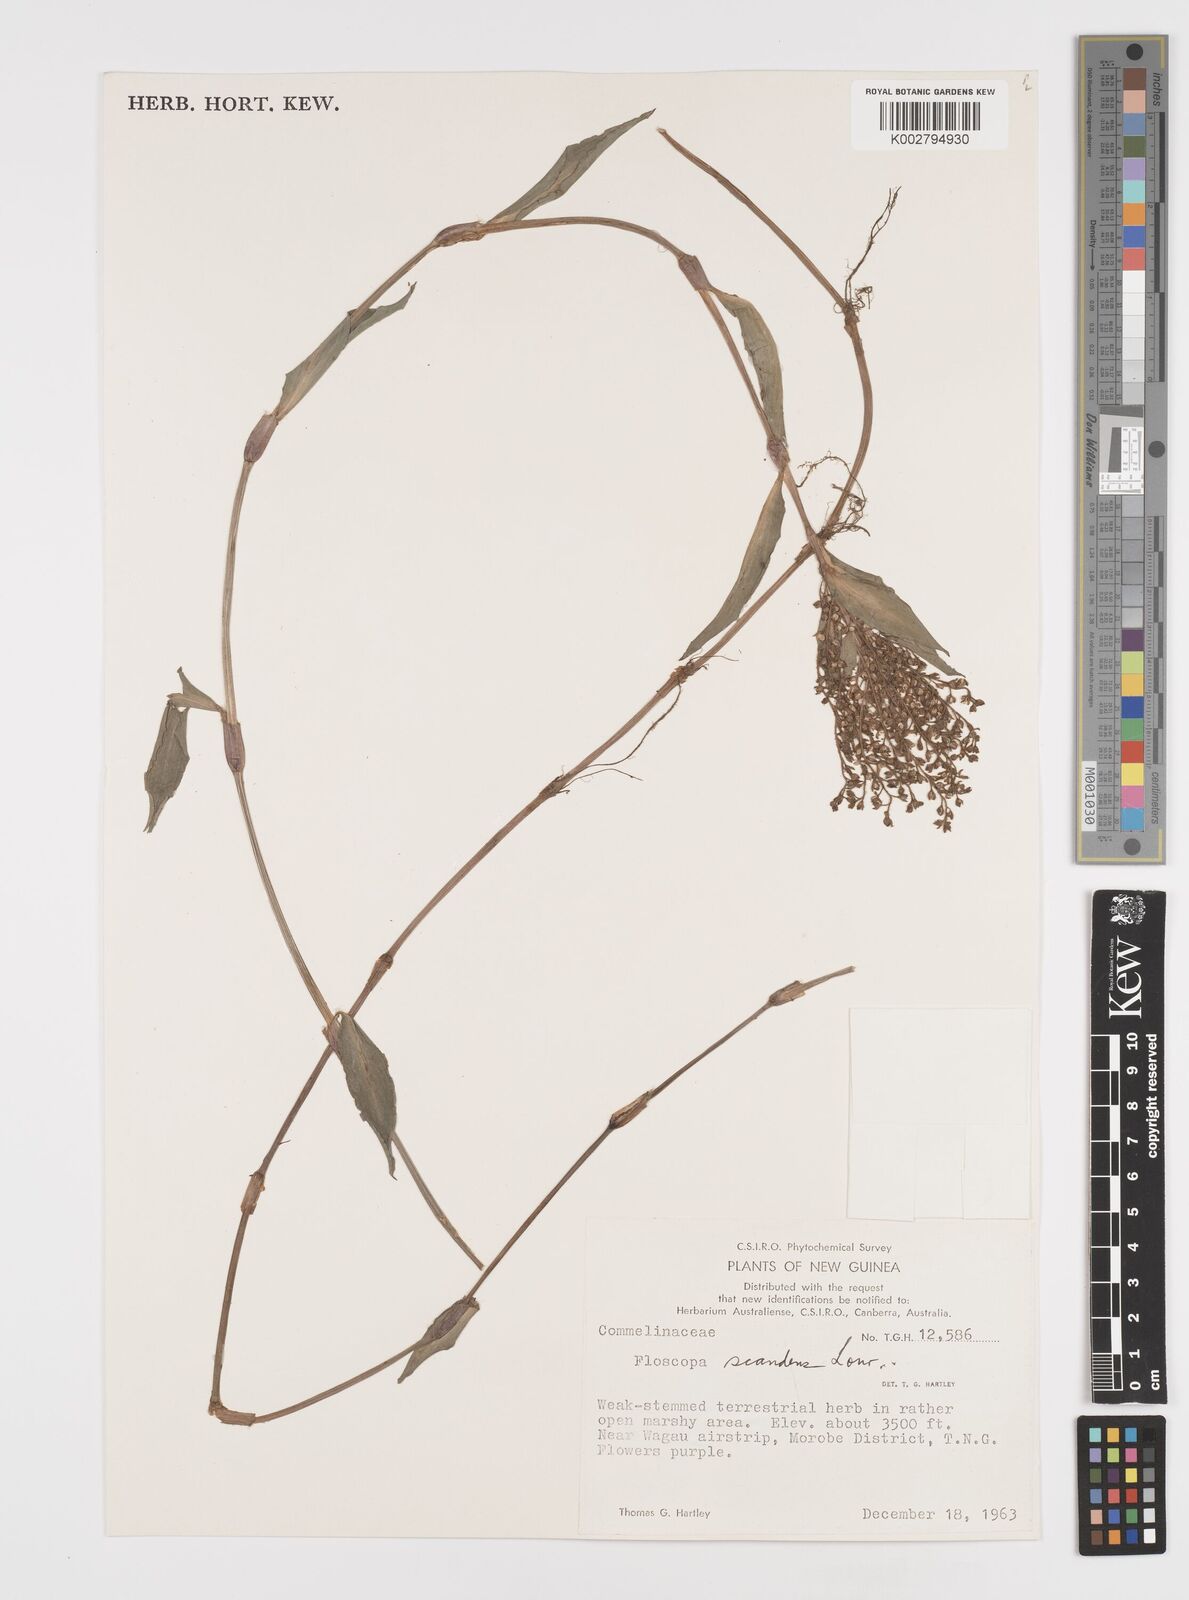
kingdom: Plantae
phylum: Tracheophyta
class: Liliopsida
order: Commelinales
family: Commelinaceae
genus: Floscopa
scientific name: Floscopa scandens
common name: Climbing flower cup
